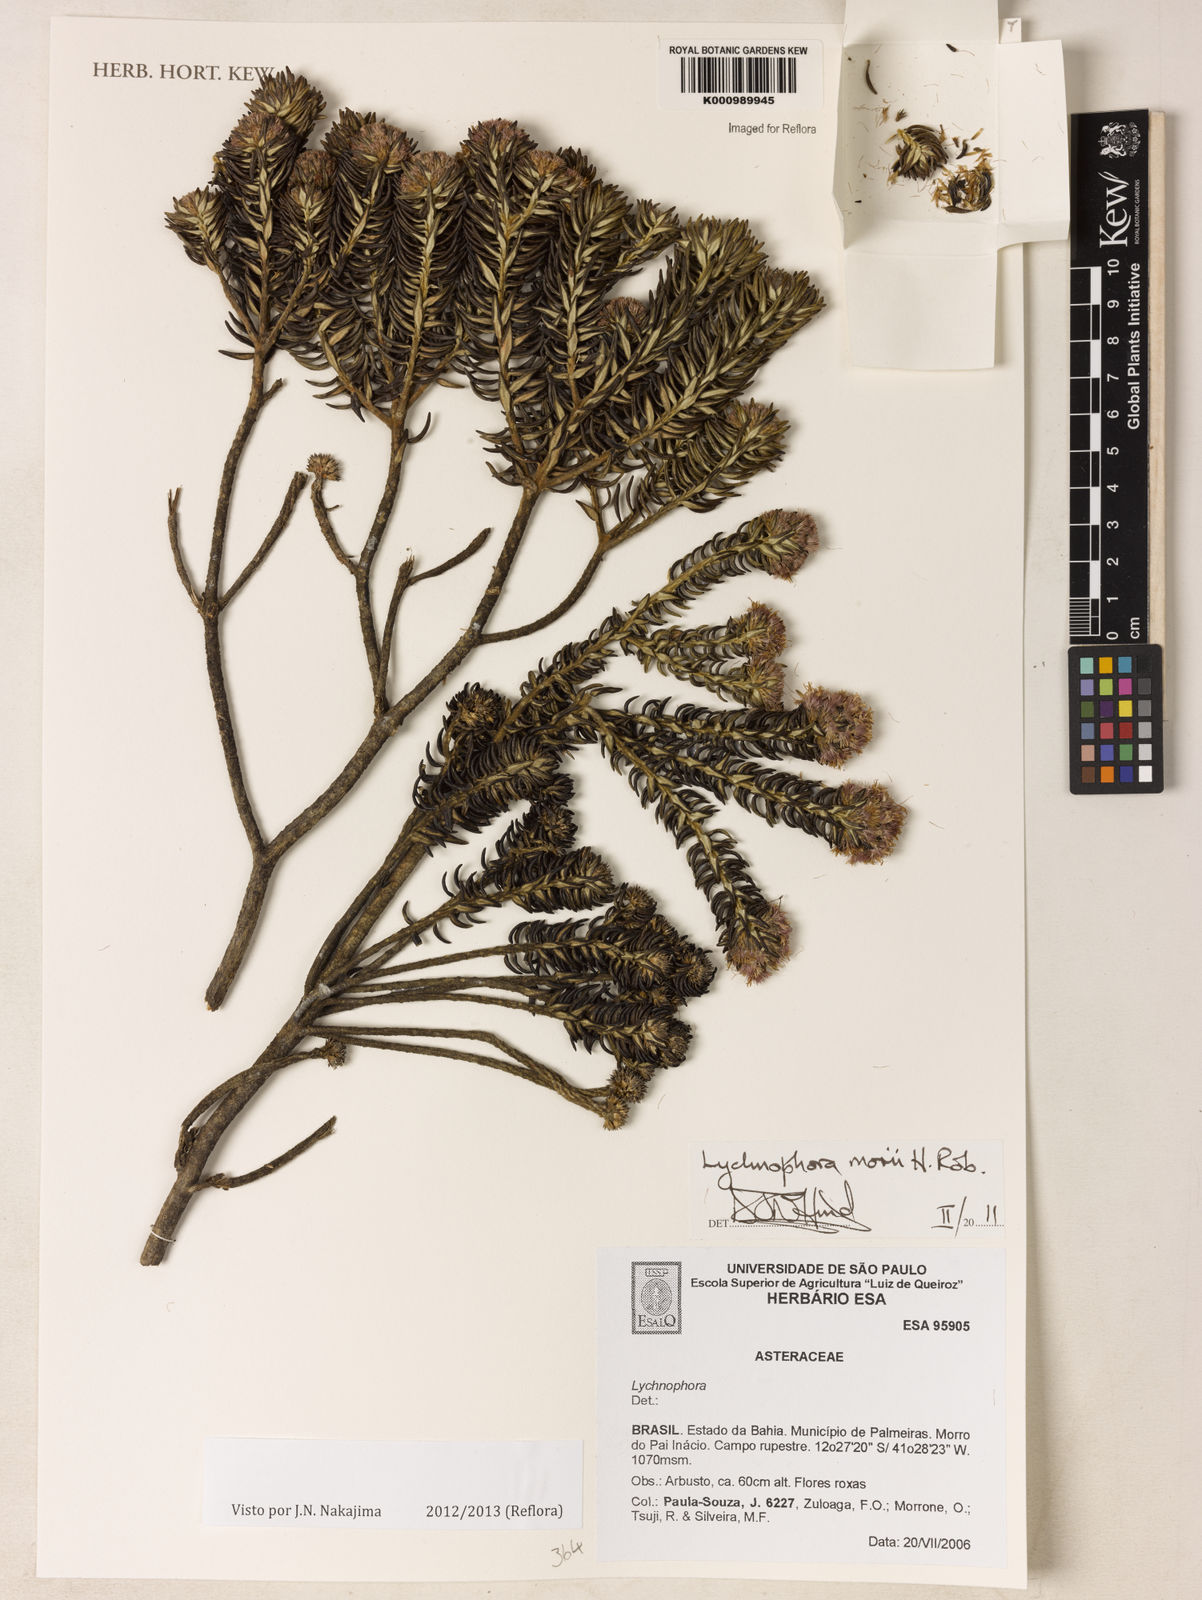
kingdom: Plantae
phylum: Tracheophyta
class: Magnoliopsida
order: Asterales
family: Asteraceae
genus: Lychnophorella
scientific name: Lychnophorella morii
